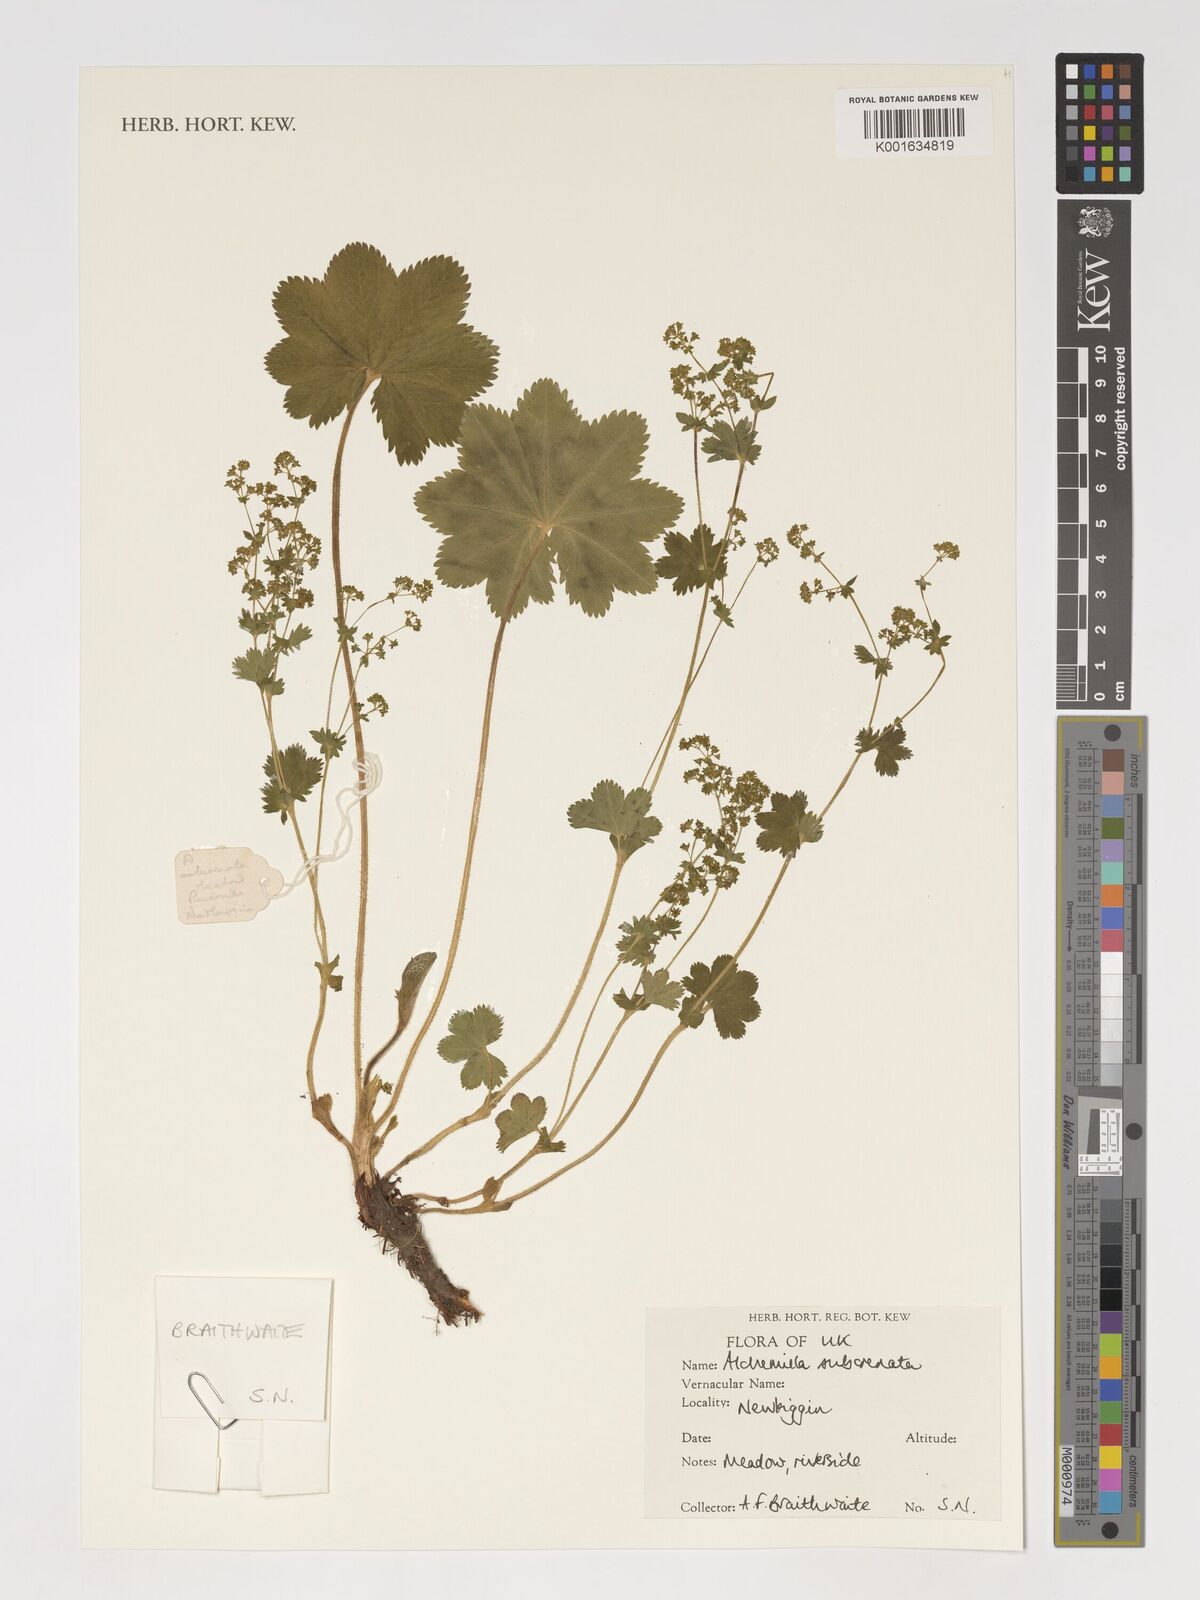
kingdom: Plantae
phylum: Tracheophyta
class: Magnoliopsida
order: Rosales
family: Rosaceae
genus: Alchemilla
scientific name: Alchemilla subcrenata
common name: Broadtooth lady's mantle
